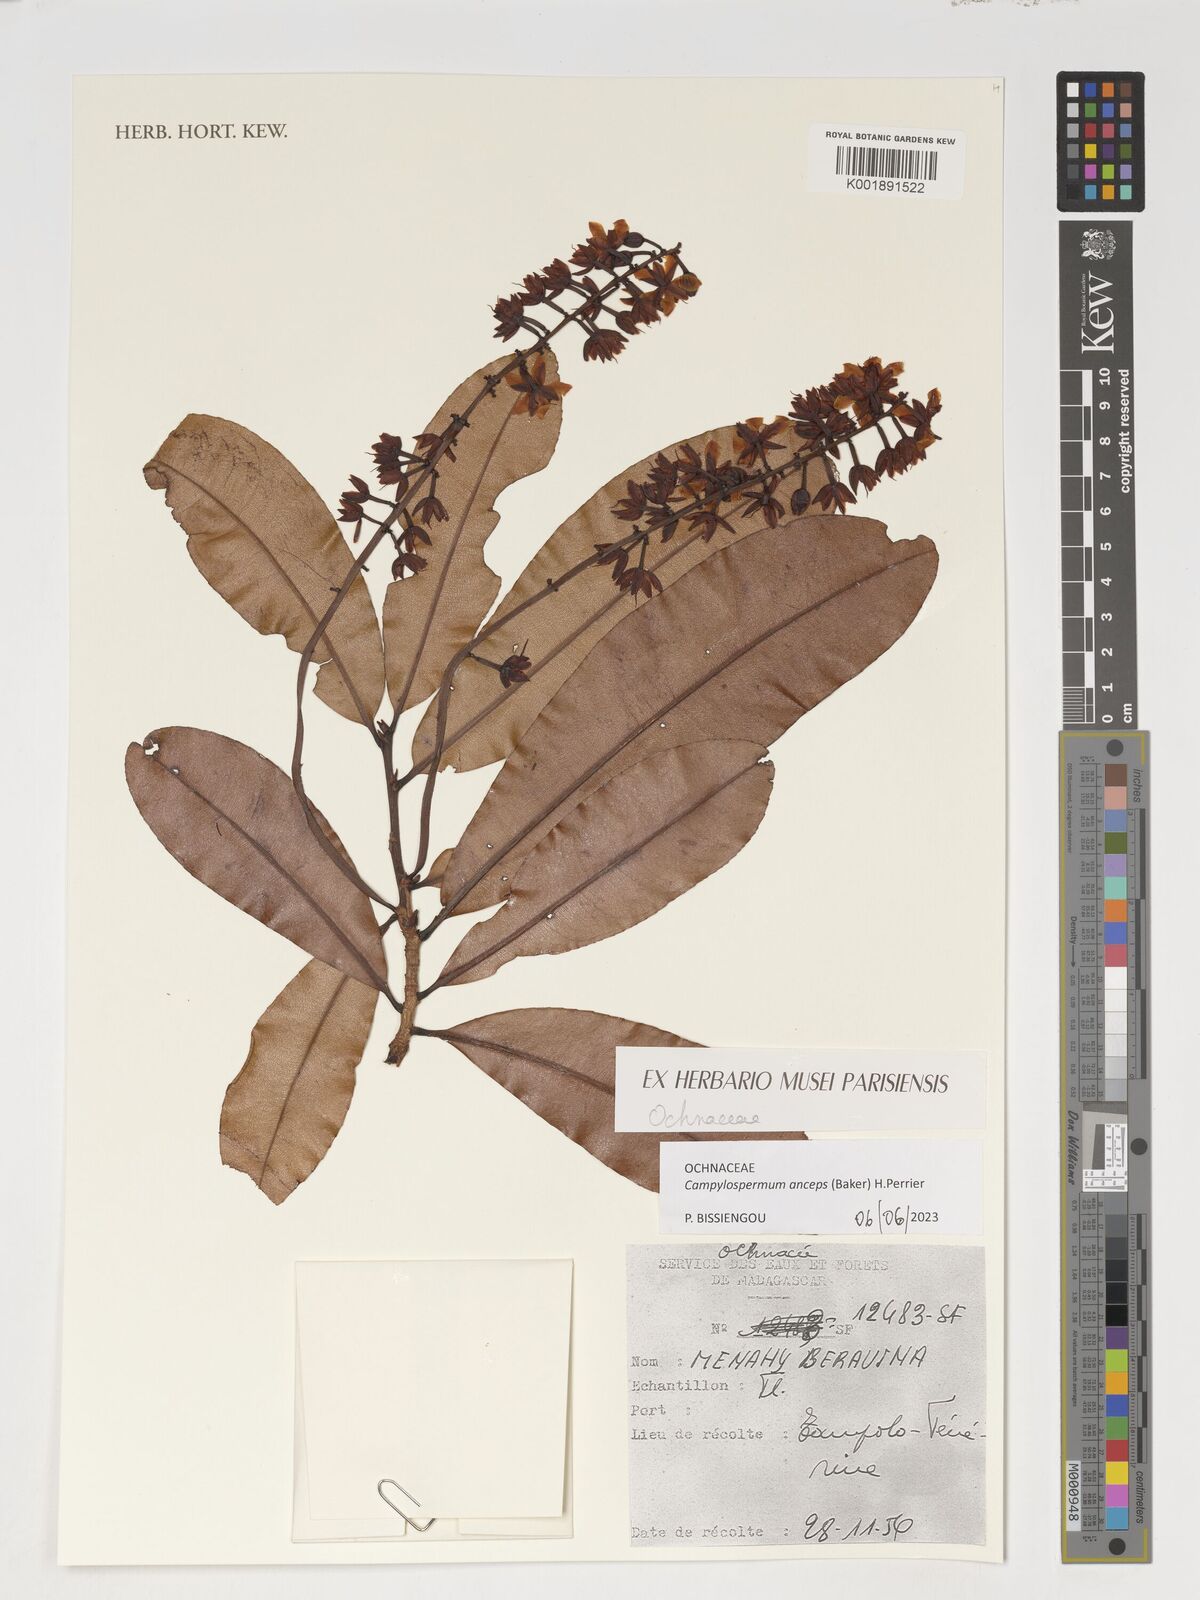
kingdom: Plantae
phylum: Tracheophyta
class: Magnoliopsida
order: Malpighiales
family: Ochnaceae
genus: Campylospermum
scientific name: Campylospermum anceps
